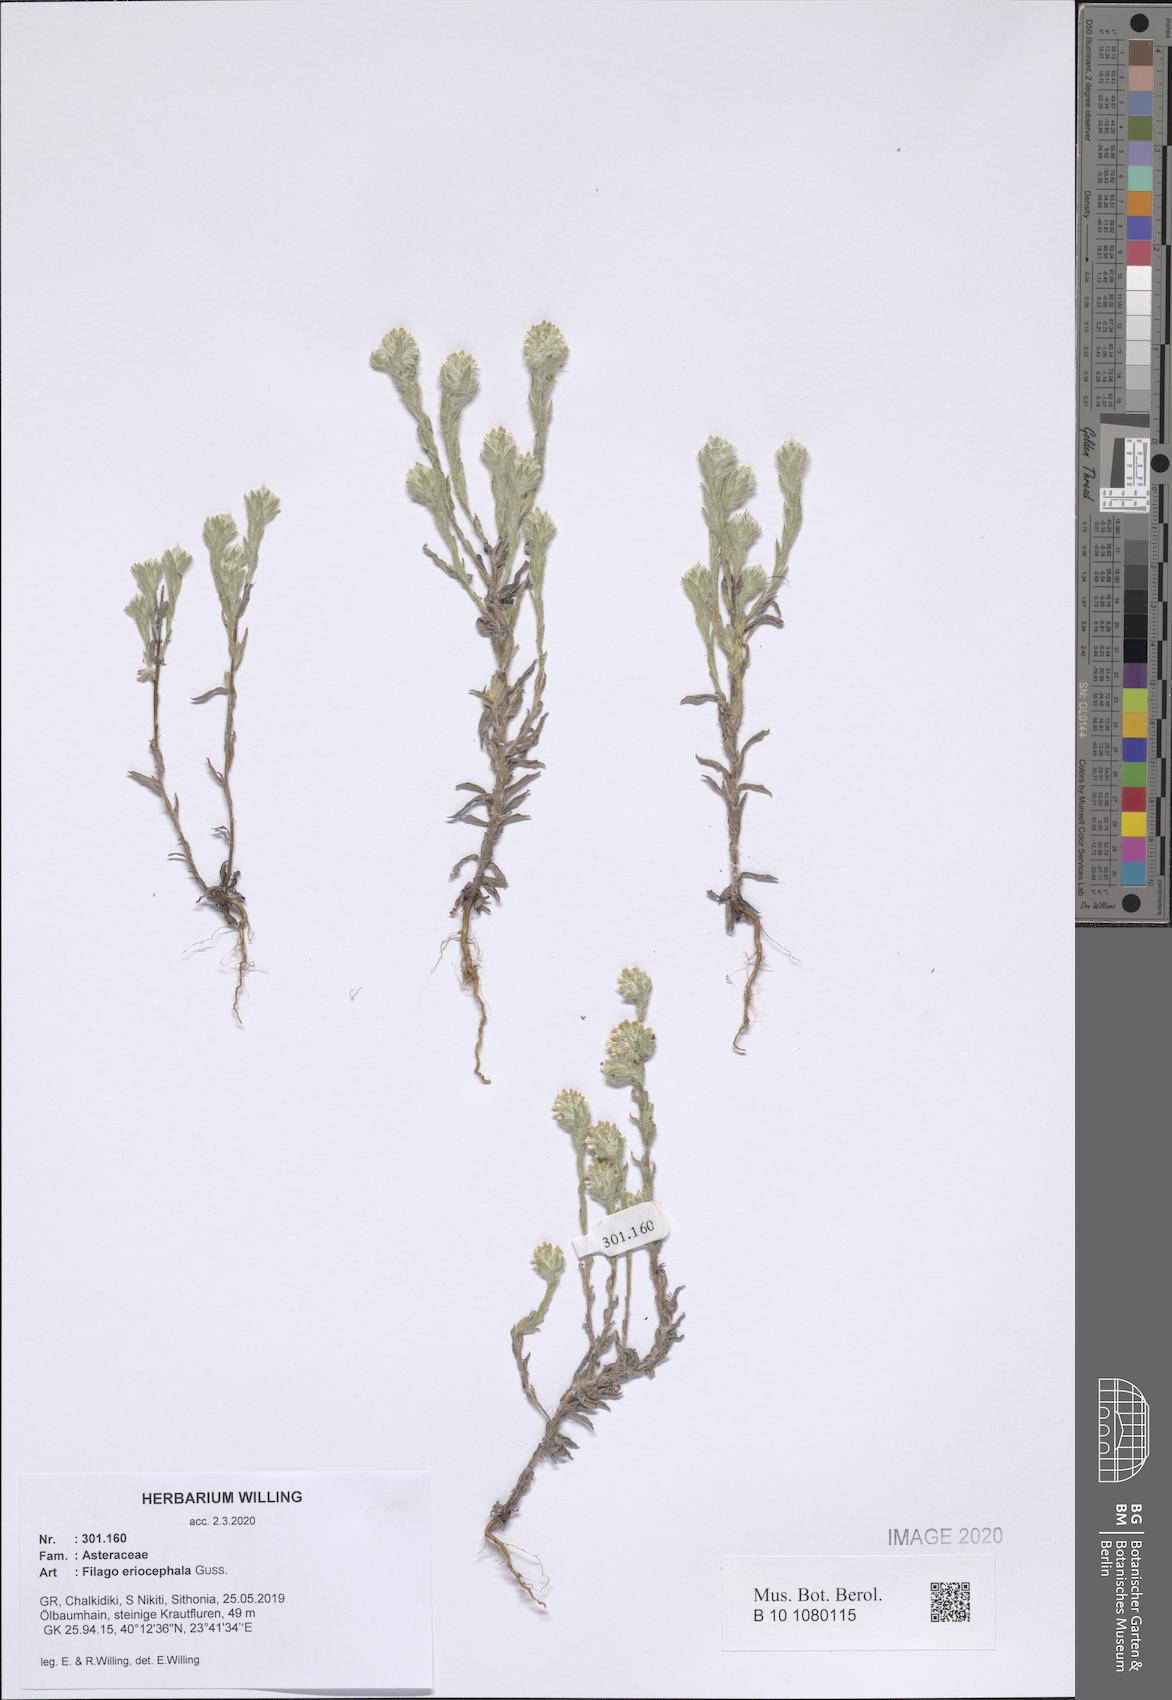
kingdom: Plantae
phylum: Tracheophyta
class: Magnoliopsida
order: Asterales
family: Asteraceae
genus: Filago
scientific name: Filago eriocephala
